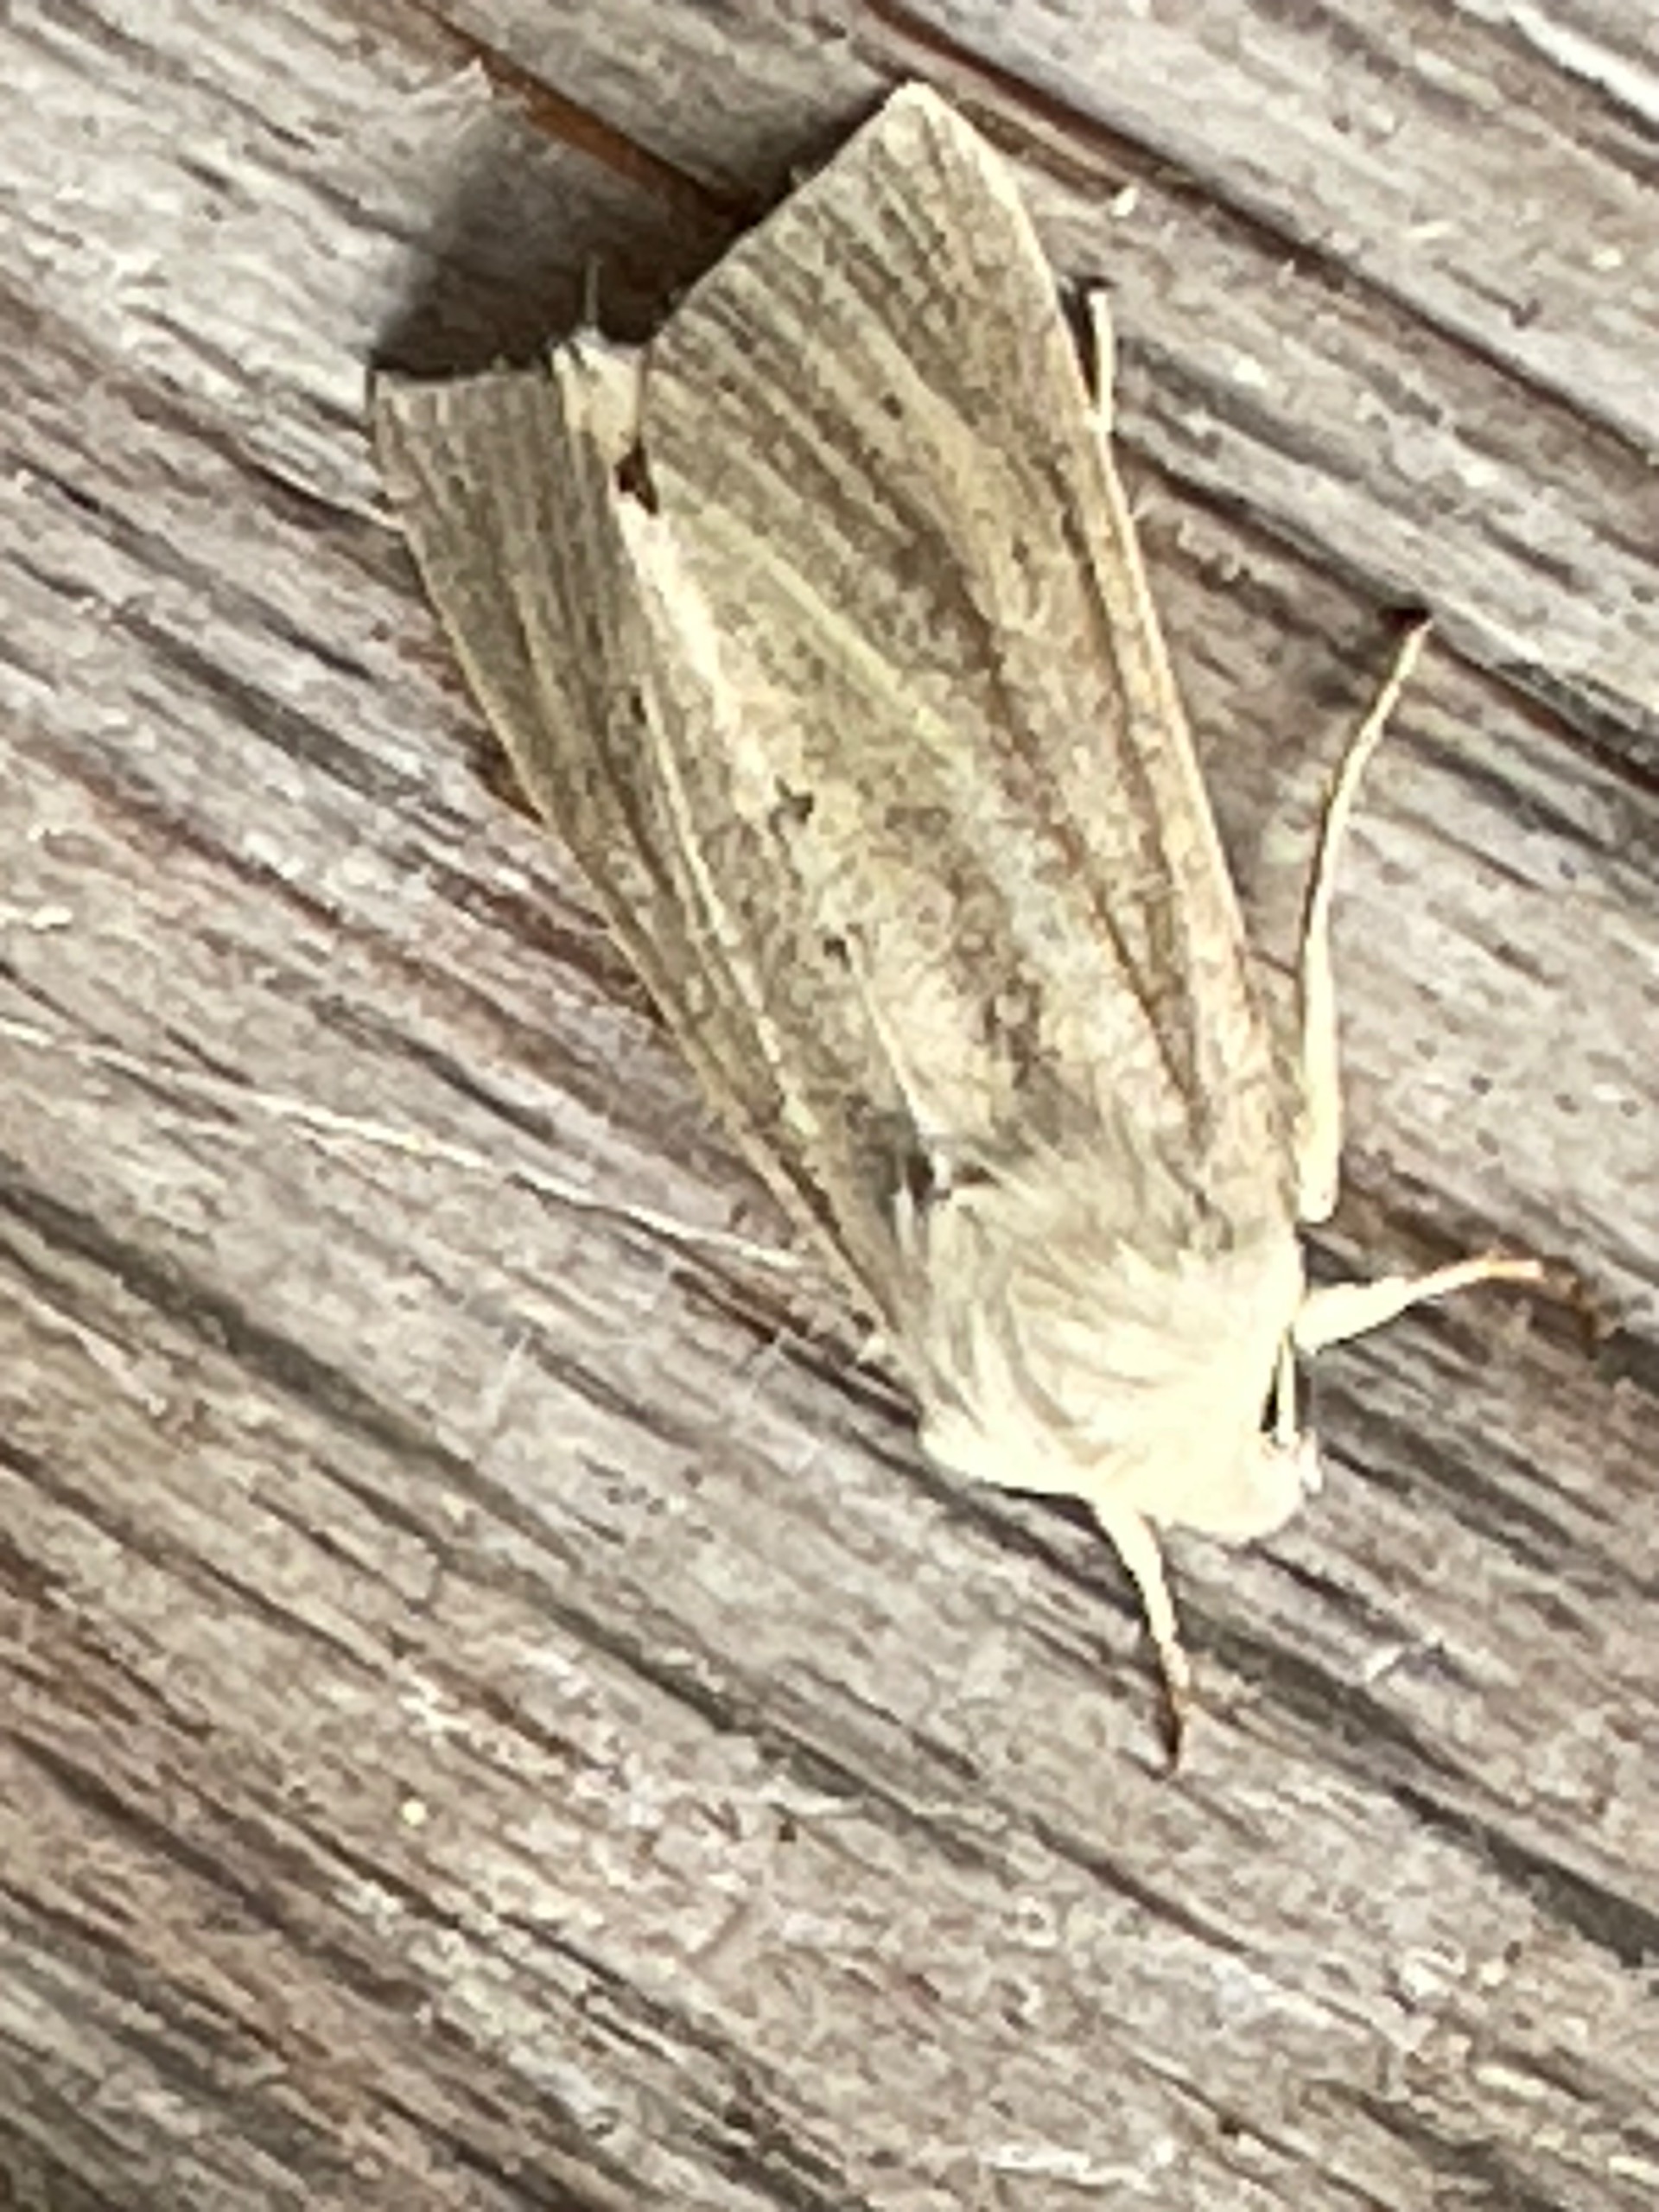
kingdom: Animalia
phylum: Arthropoda
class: Insecta
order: Lepidoptera
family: Noctuidae
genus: Rhizedra
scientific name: Rhizedra lutosa
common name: Stor sivugle
